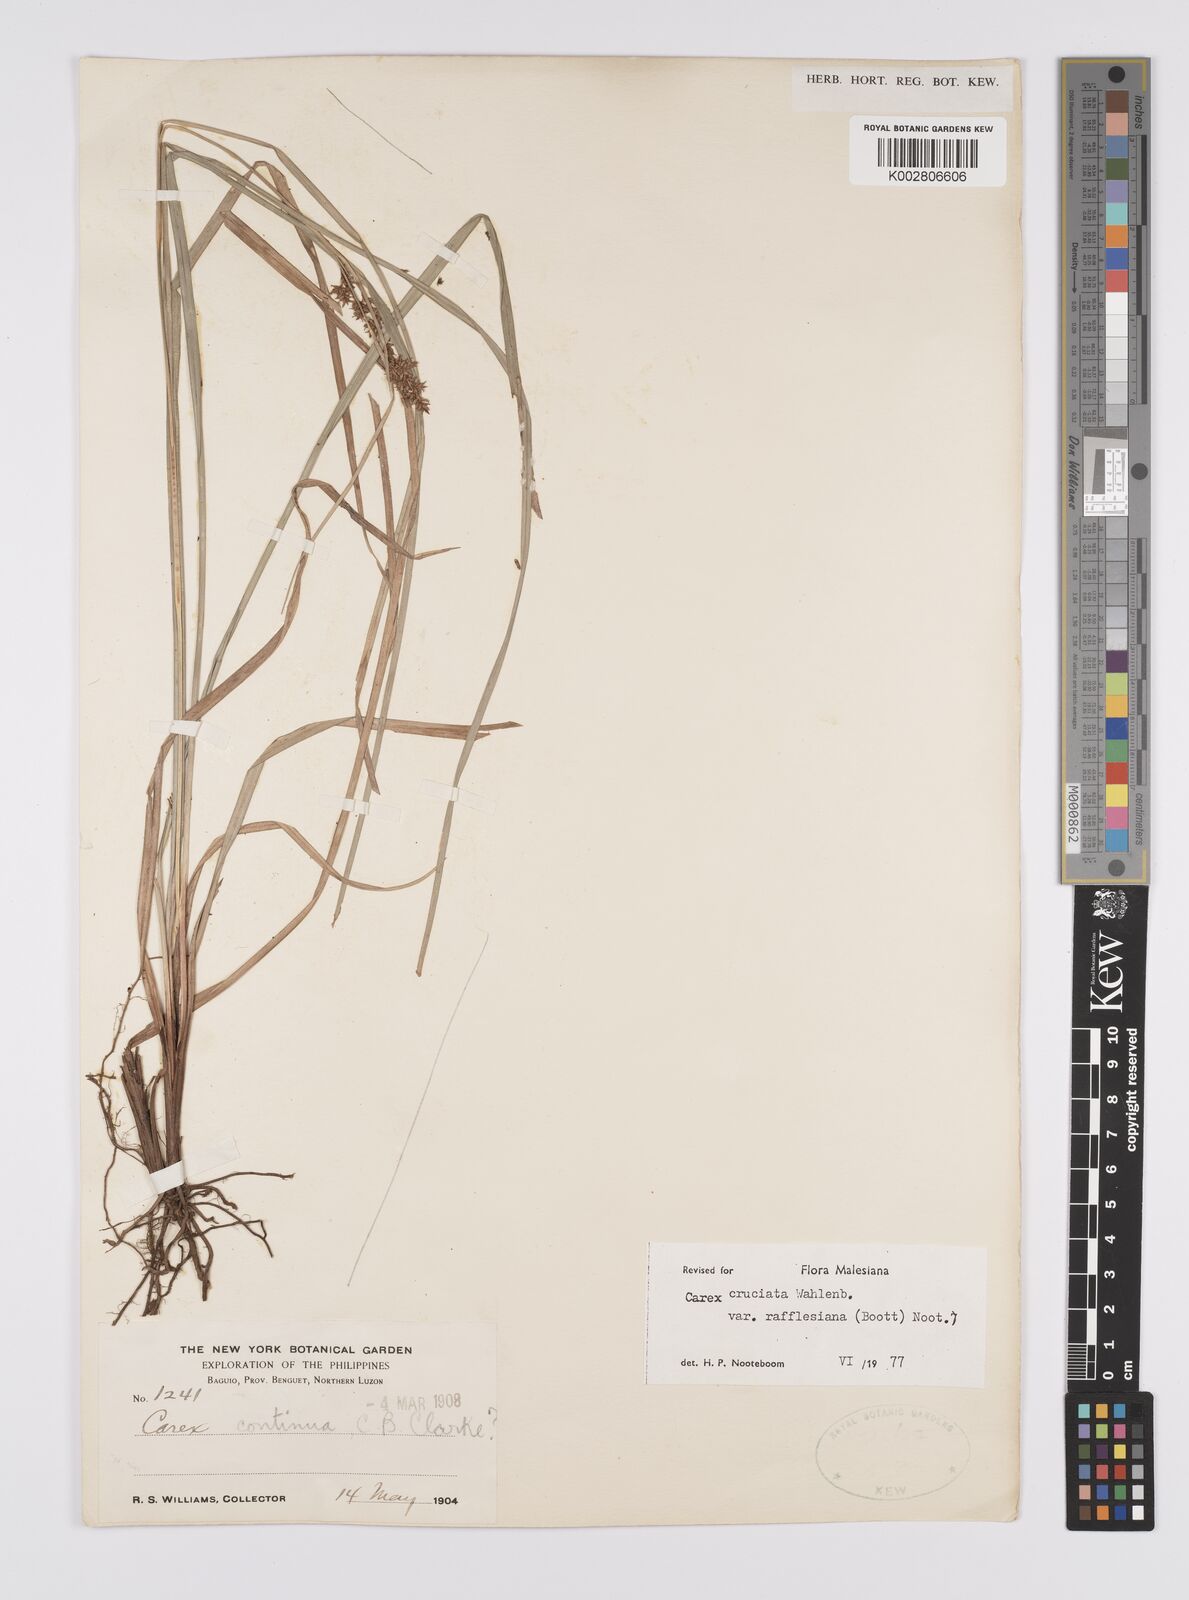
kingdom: Plantae
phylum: Tracheophyta
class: Liliopsida
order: Poales
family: Cyperaceae
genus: Carex
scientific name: Carex rafflesiana
